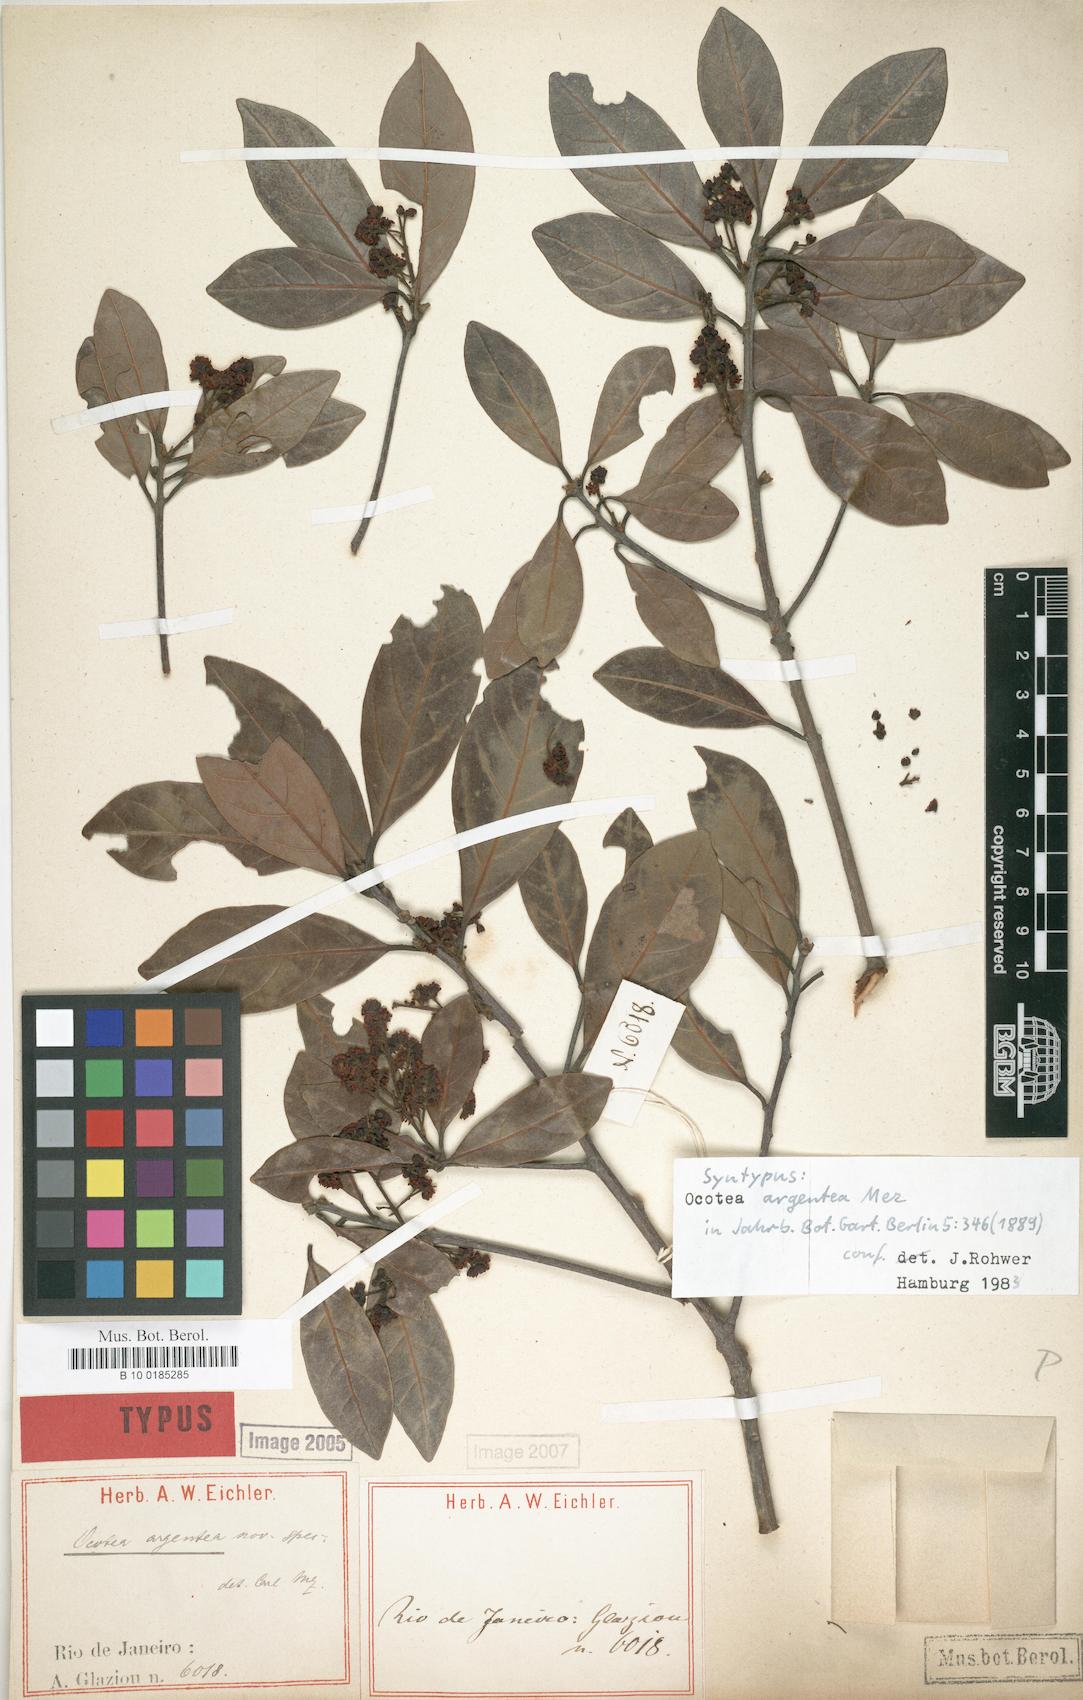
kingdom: Plantae
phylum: Tracheophyta
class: Magnoliopsida
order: Laurales
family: Lauraceae
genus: Ocotea
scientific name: Ocotea argentea
